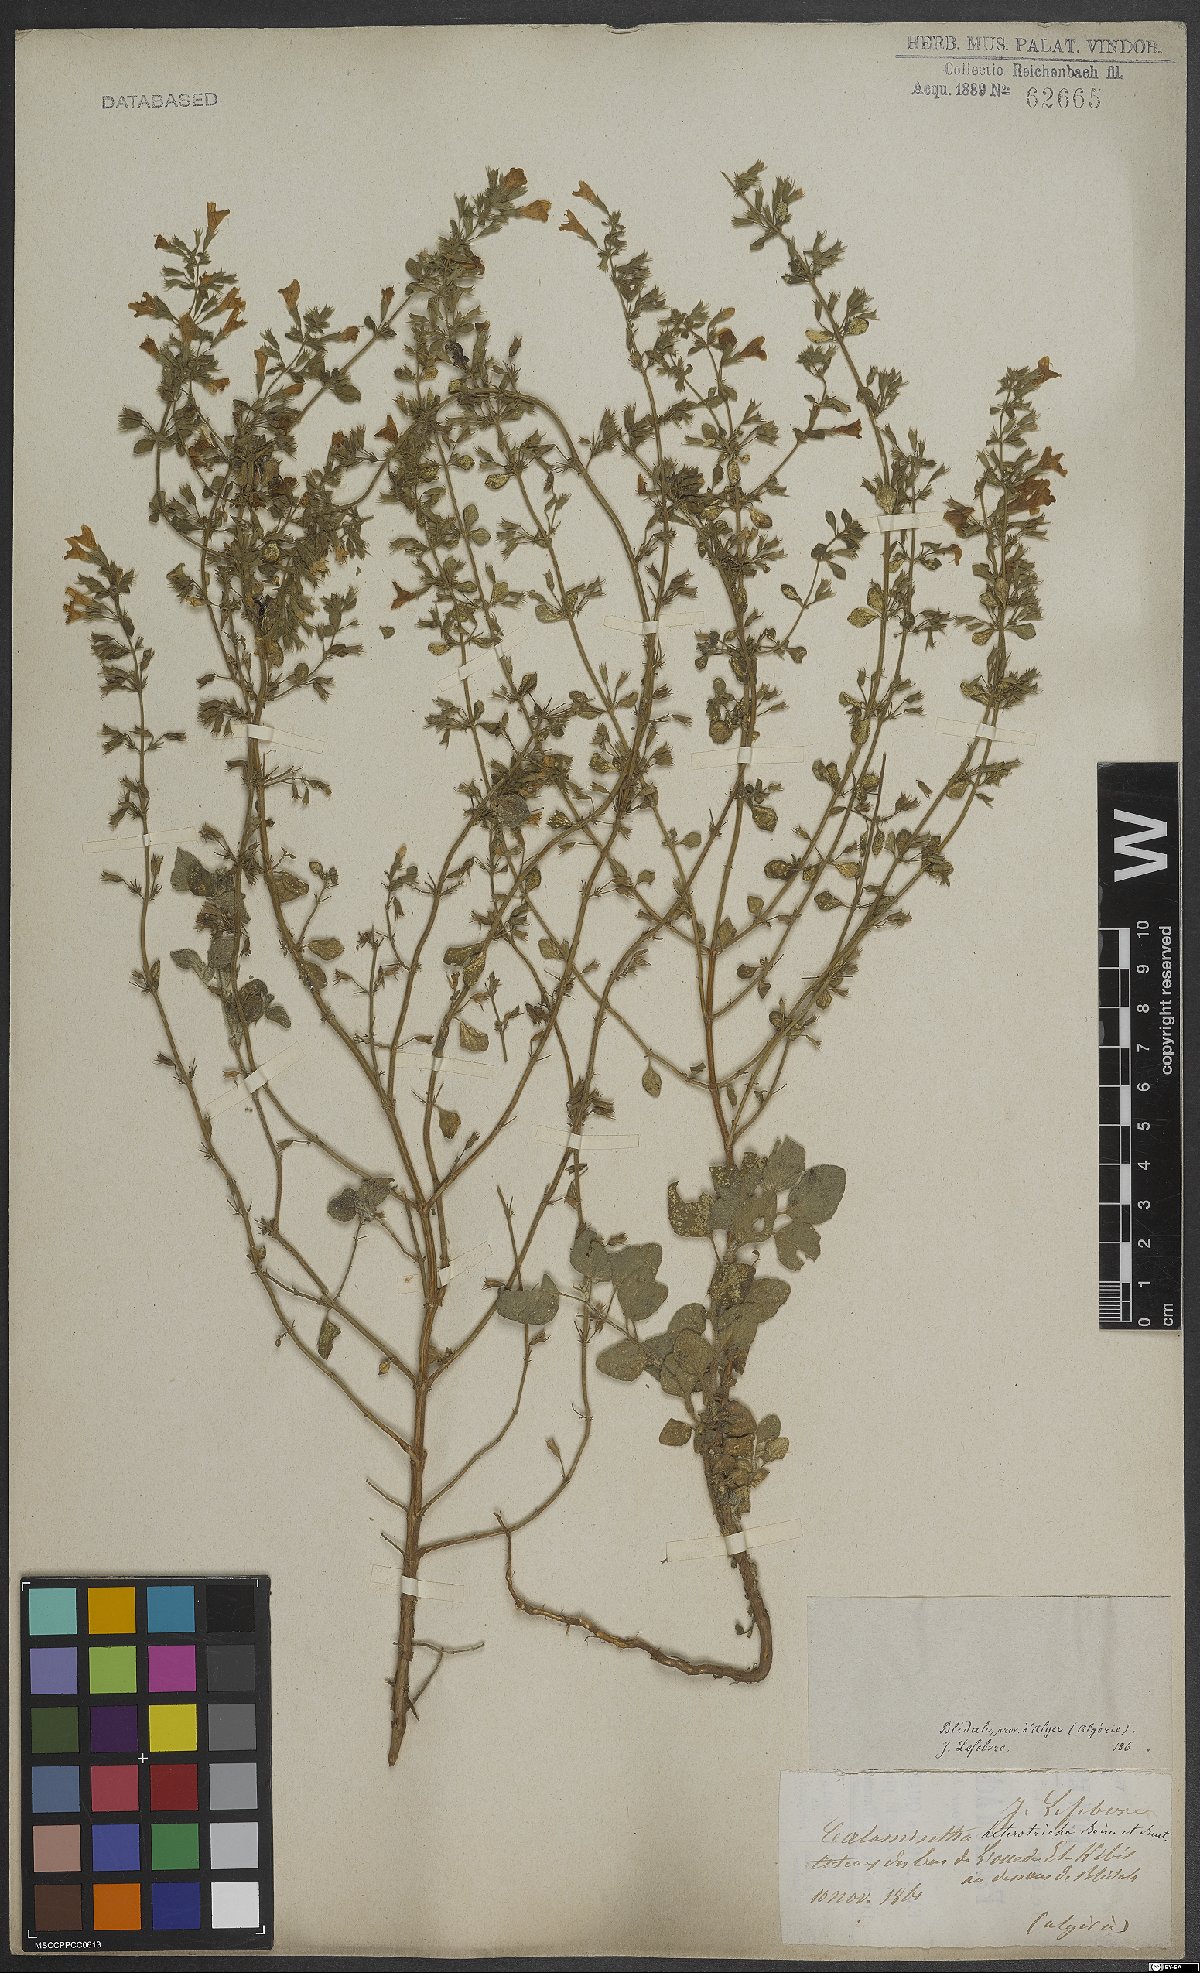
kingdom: Plantae
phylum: Tracheophyta
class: Magnoliopsida
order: Lamiales
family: Lamiaceae
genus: Clinopodium
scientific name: Clinopodium heterotrichum
